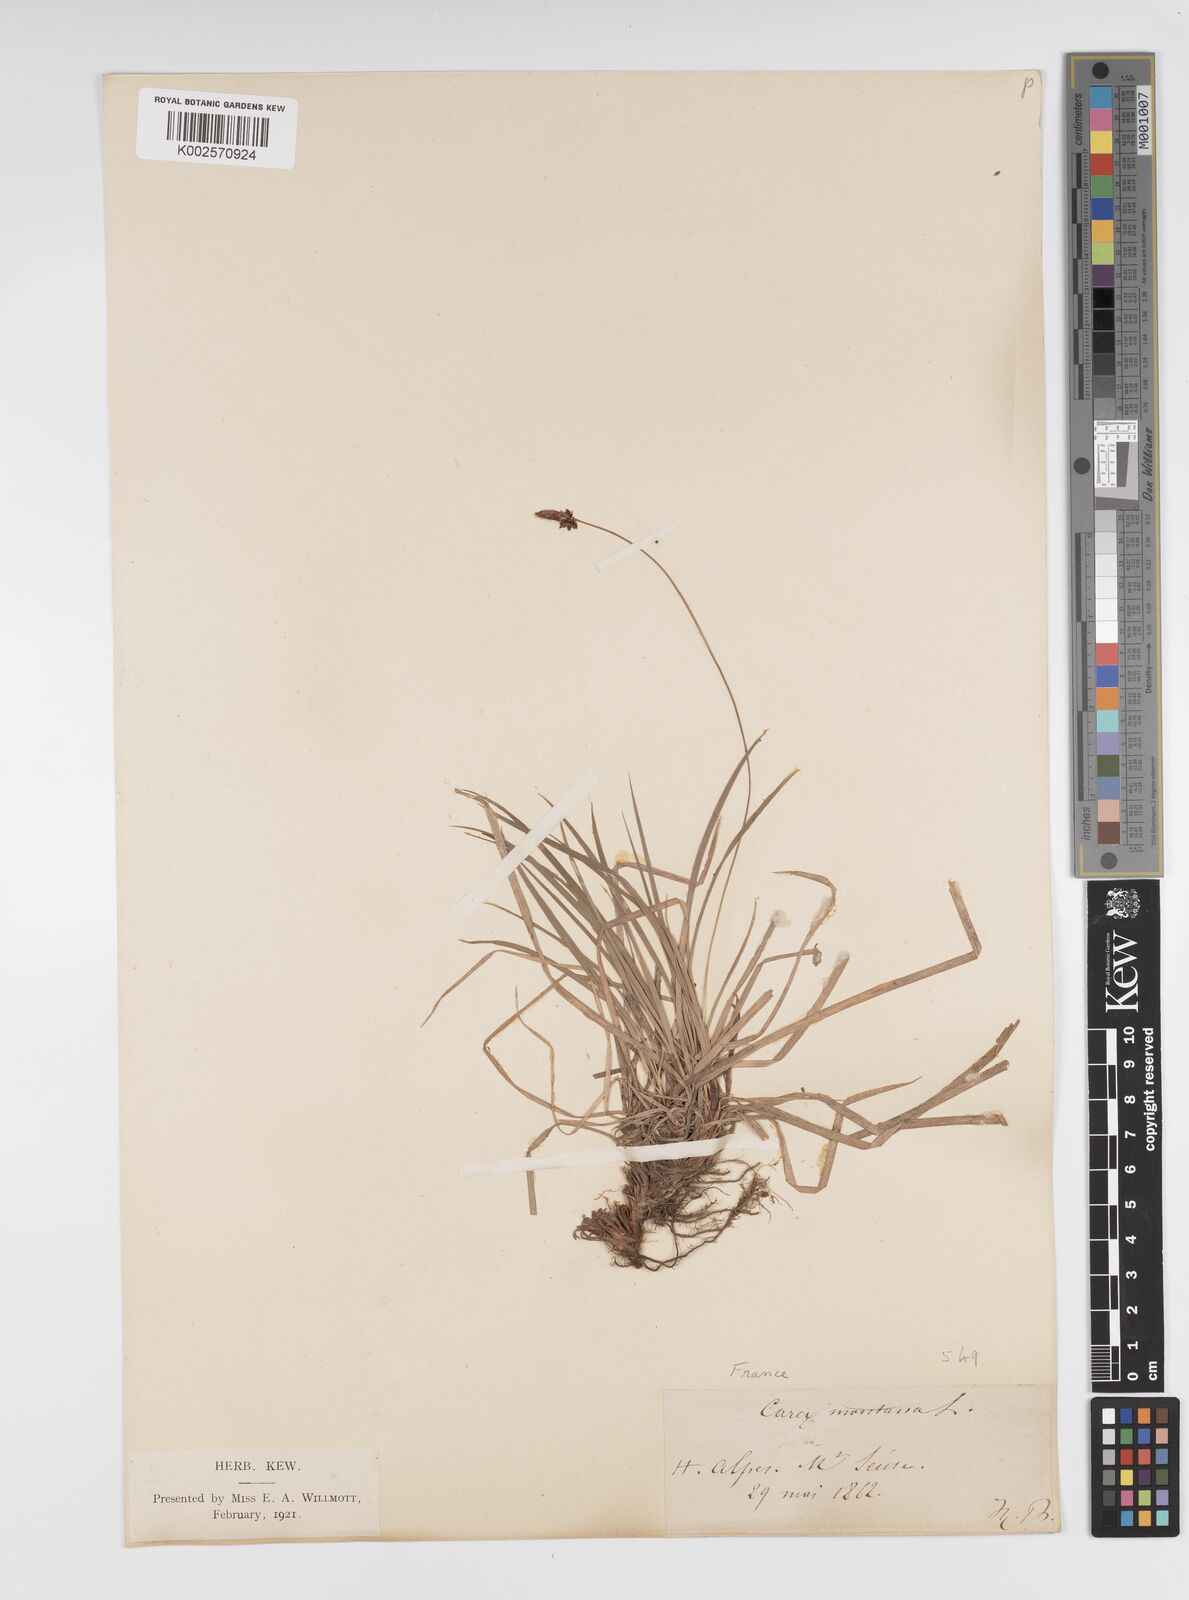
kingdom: Plantae
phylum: Tracheophyta
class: Liliopsida
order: Poales
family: Cyperaceae
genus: Carex
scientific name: Carex montana
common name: Soft-leaved sedge
